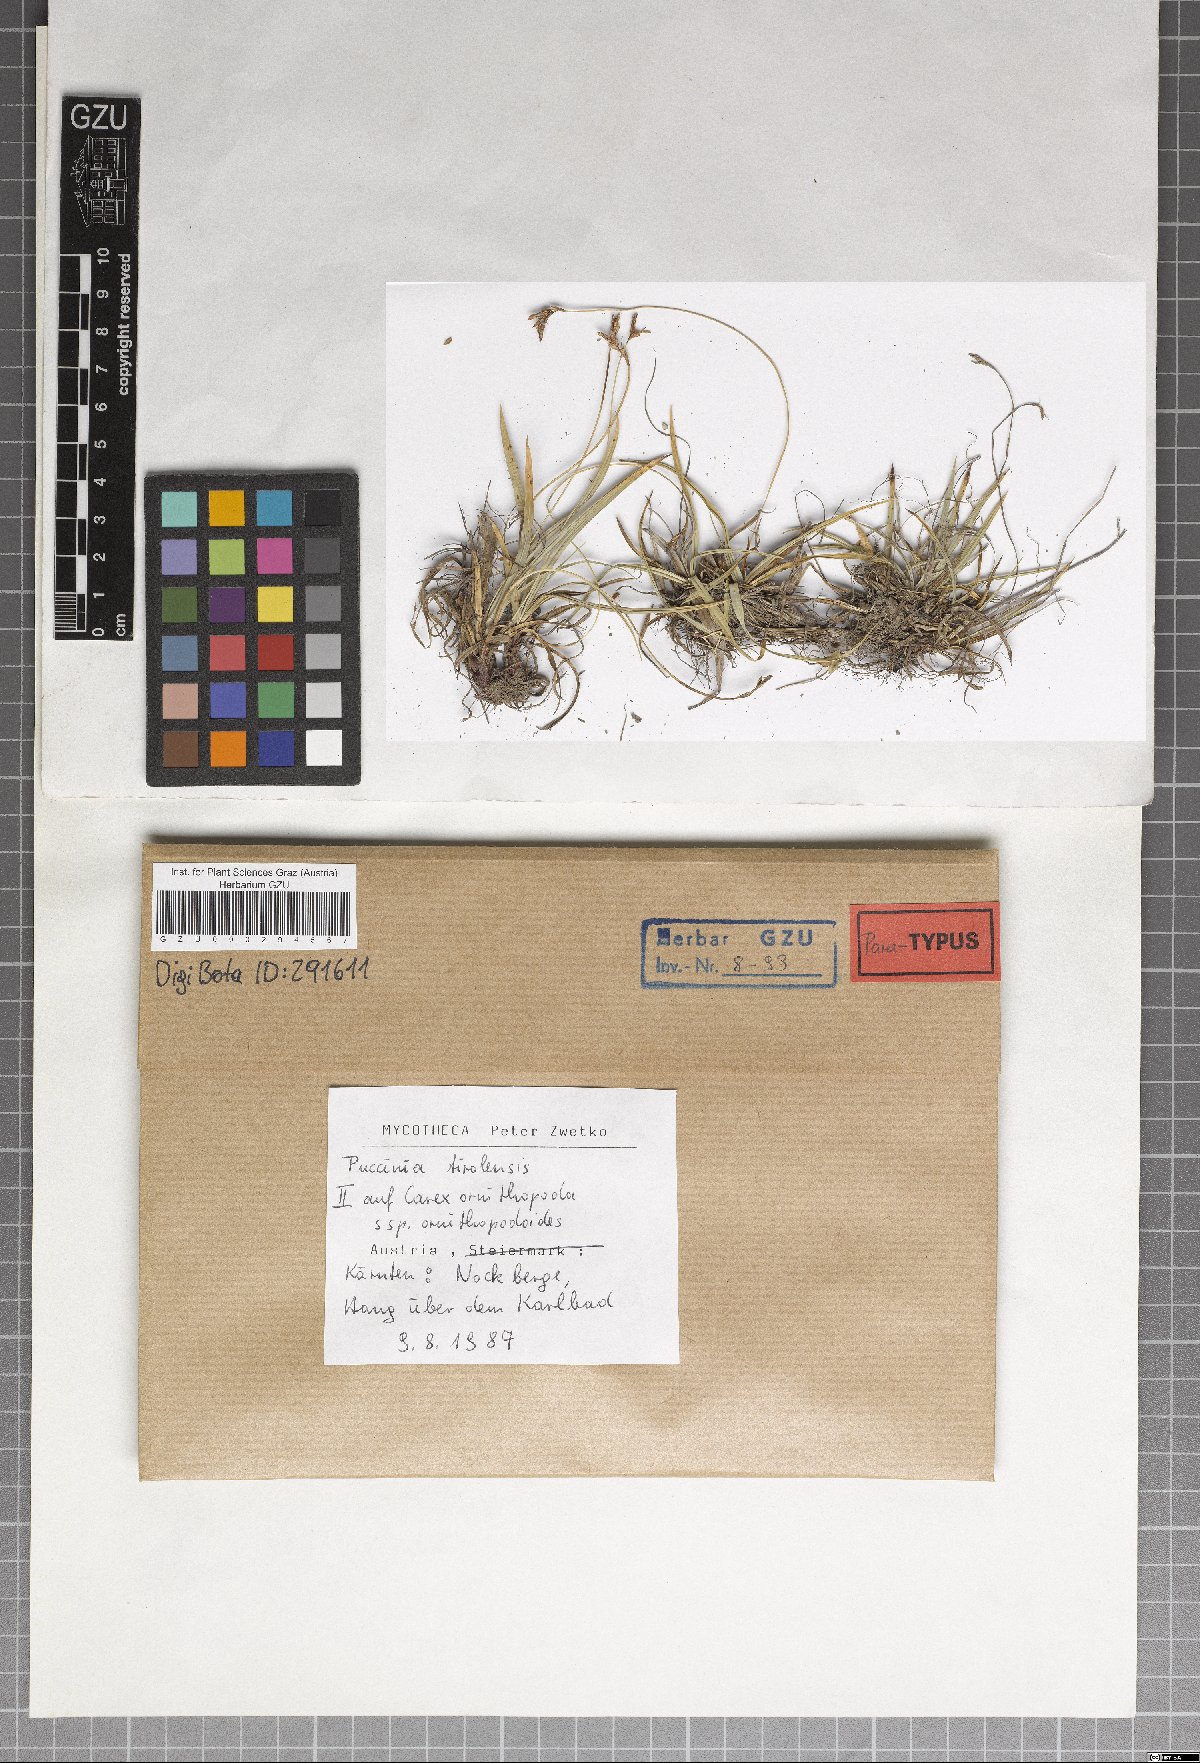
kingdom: Fungi
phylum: Basidiomycota
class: Pucciniomycetes
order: Pucciniales
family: Pucciniaceae
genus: Puccinia
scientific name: Puccinia tirolensis
